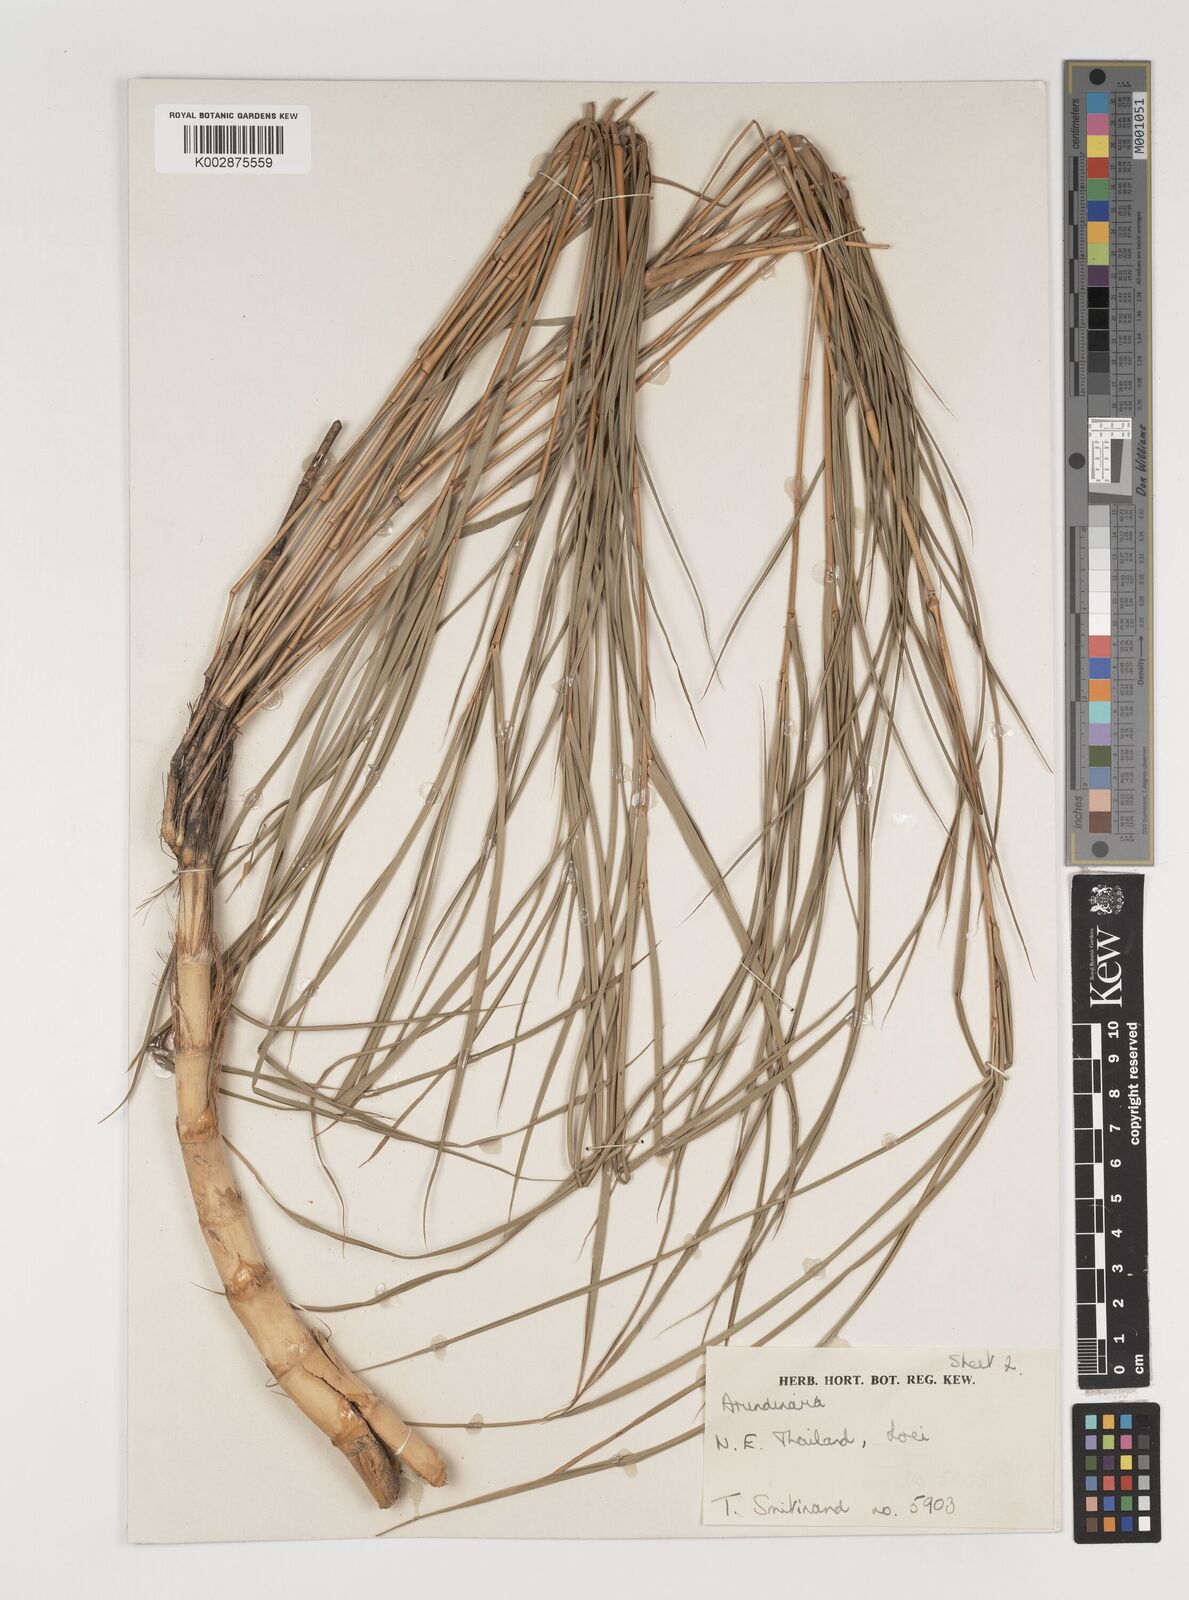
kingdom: Plantae
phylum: Tracheophyta
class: Liliopsida
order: Poales
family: Poaceae
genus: Vietnamosasa
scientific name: Vietnamosasa pusilla
